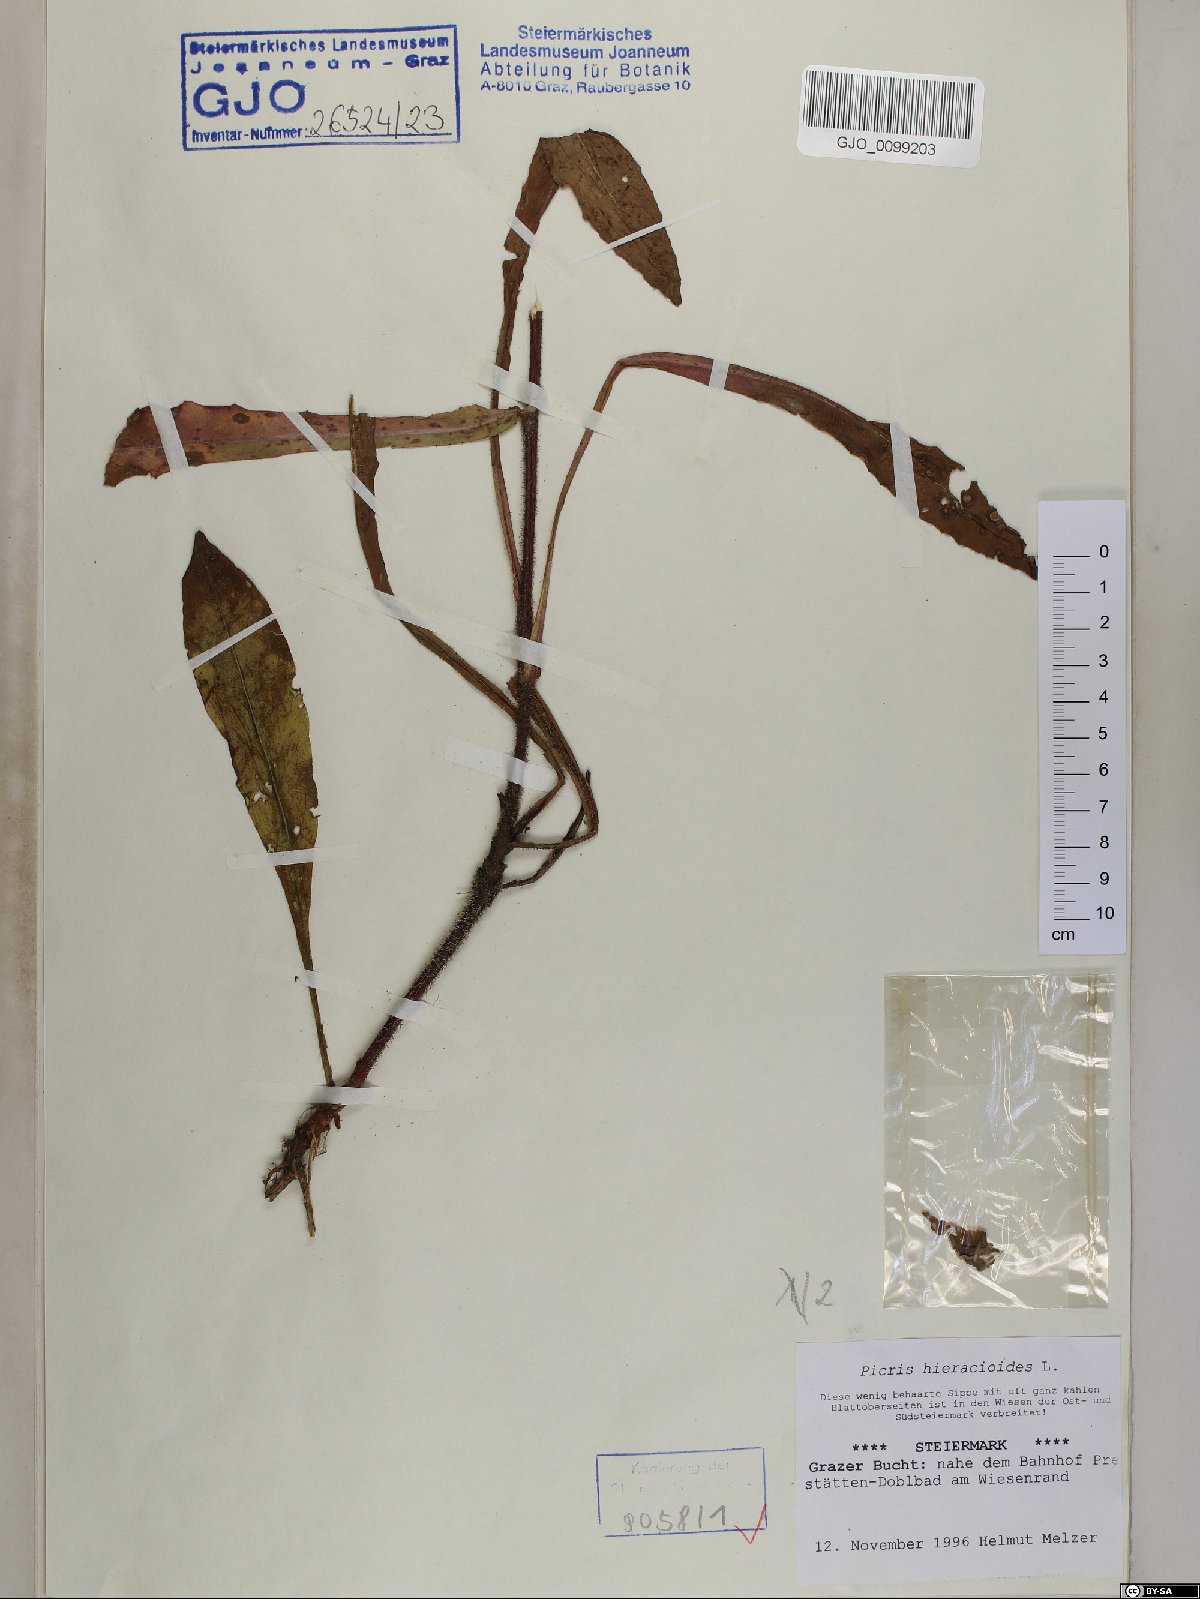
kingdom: Plantae
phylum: Tracheophyta
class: Magnoliopsida
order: Asterales
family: Asteraceae
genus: Picris
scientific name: Picris hieracioides
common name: Hawkweed oxtongue
